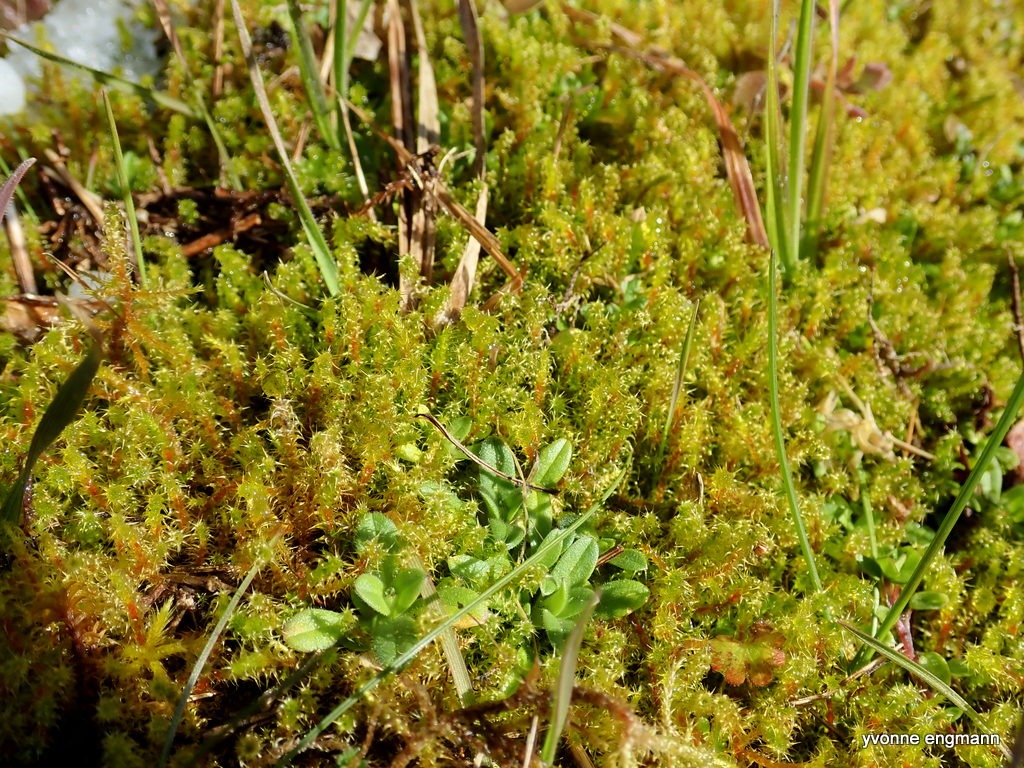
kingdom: Plantae
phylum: Bryophyta
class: Bryopsida
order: Hypnales
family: Hylocomiaceae
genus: Rhytidiadelphus
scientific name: Rhytidiadelphus squarrosus
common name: Plæne-kransemos
